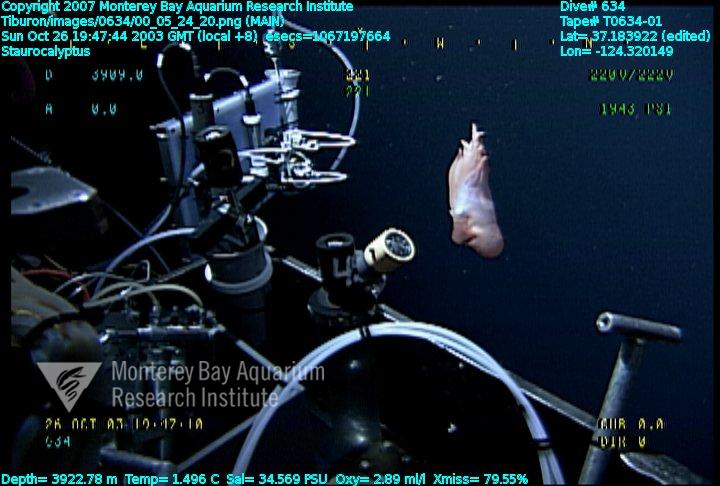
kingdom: Animalia
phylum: Porifera
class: Hexactinellida
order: Lyssacinosida
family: Rossellidae
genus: Staurocalyptus
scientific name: Staurocalyptus
